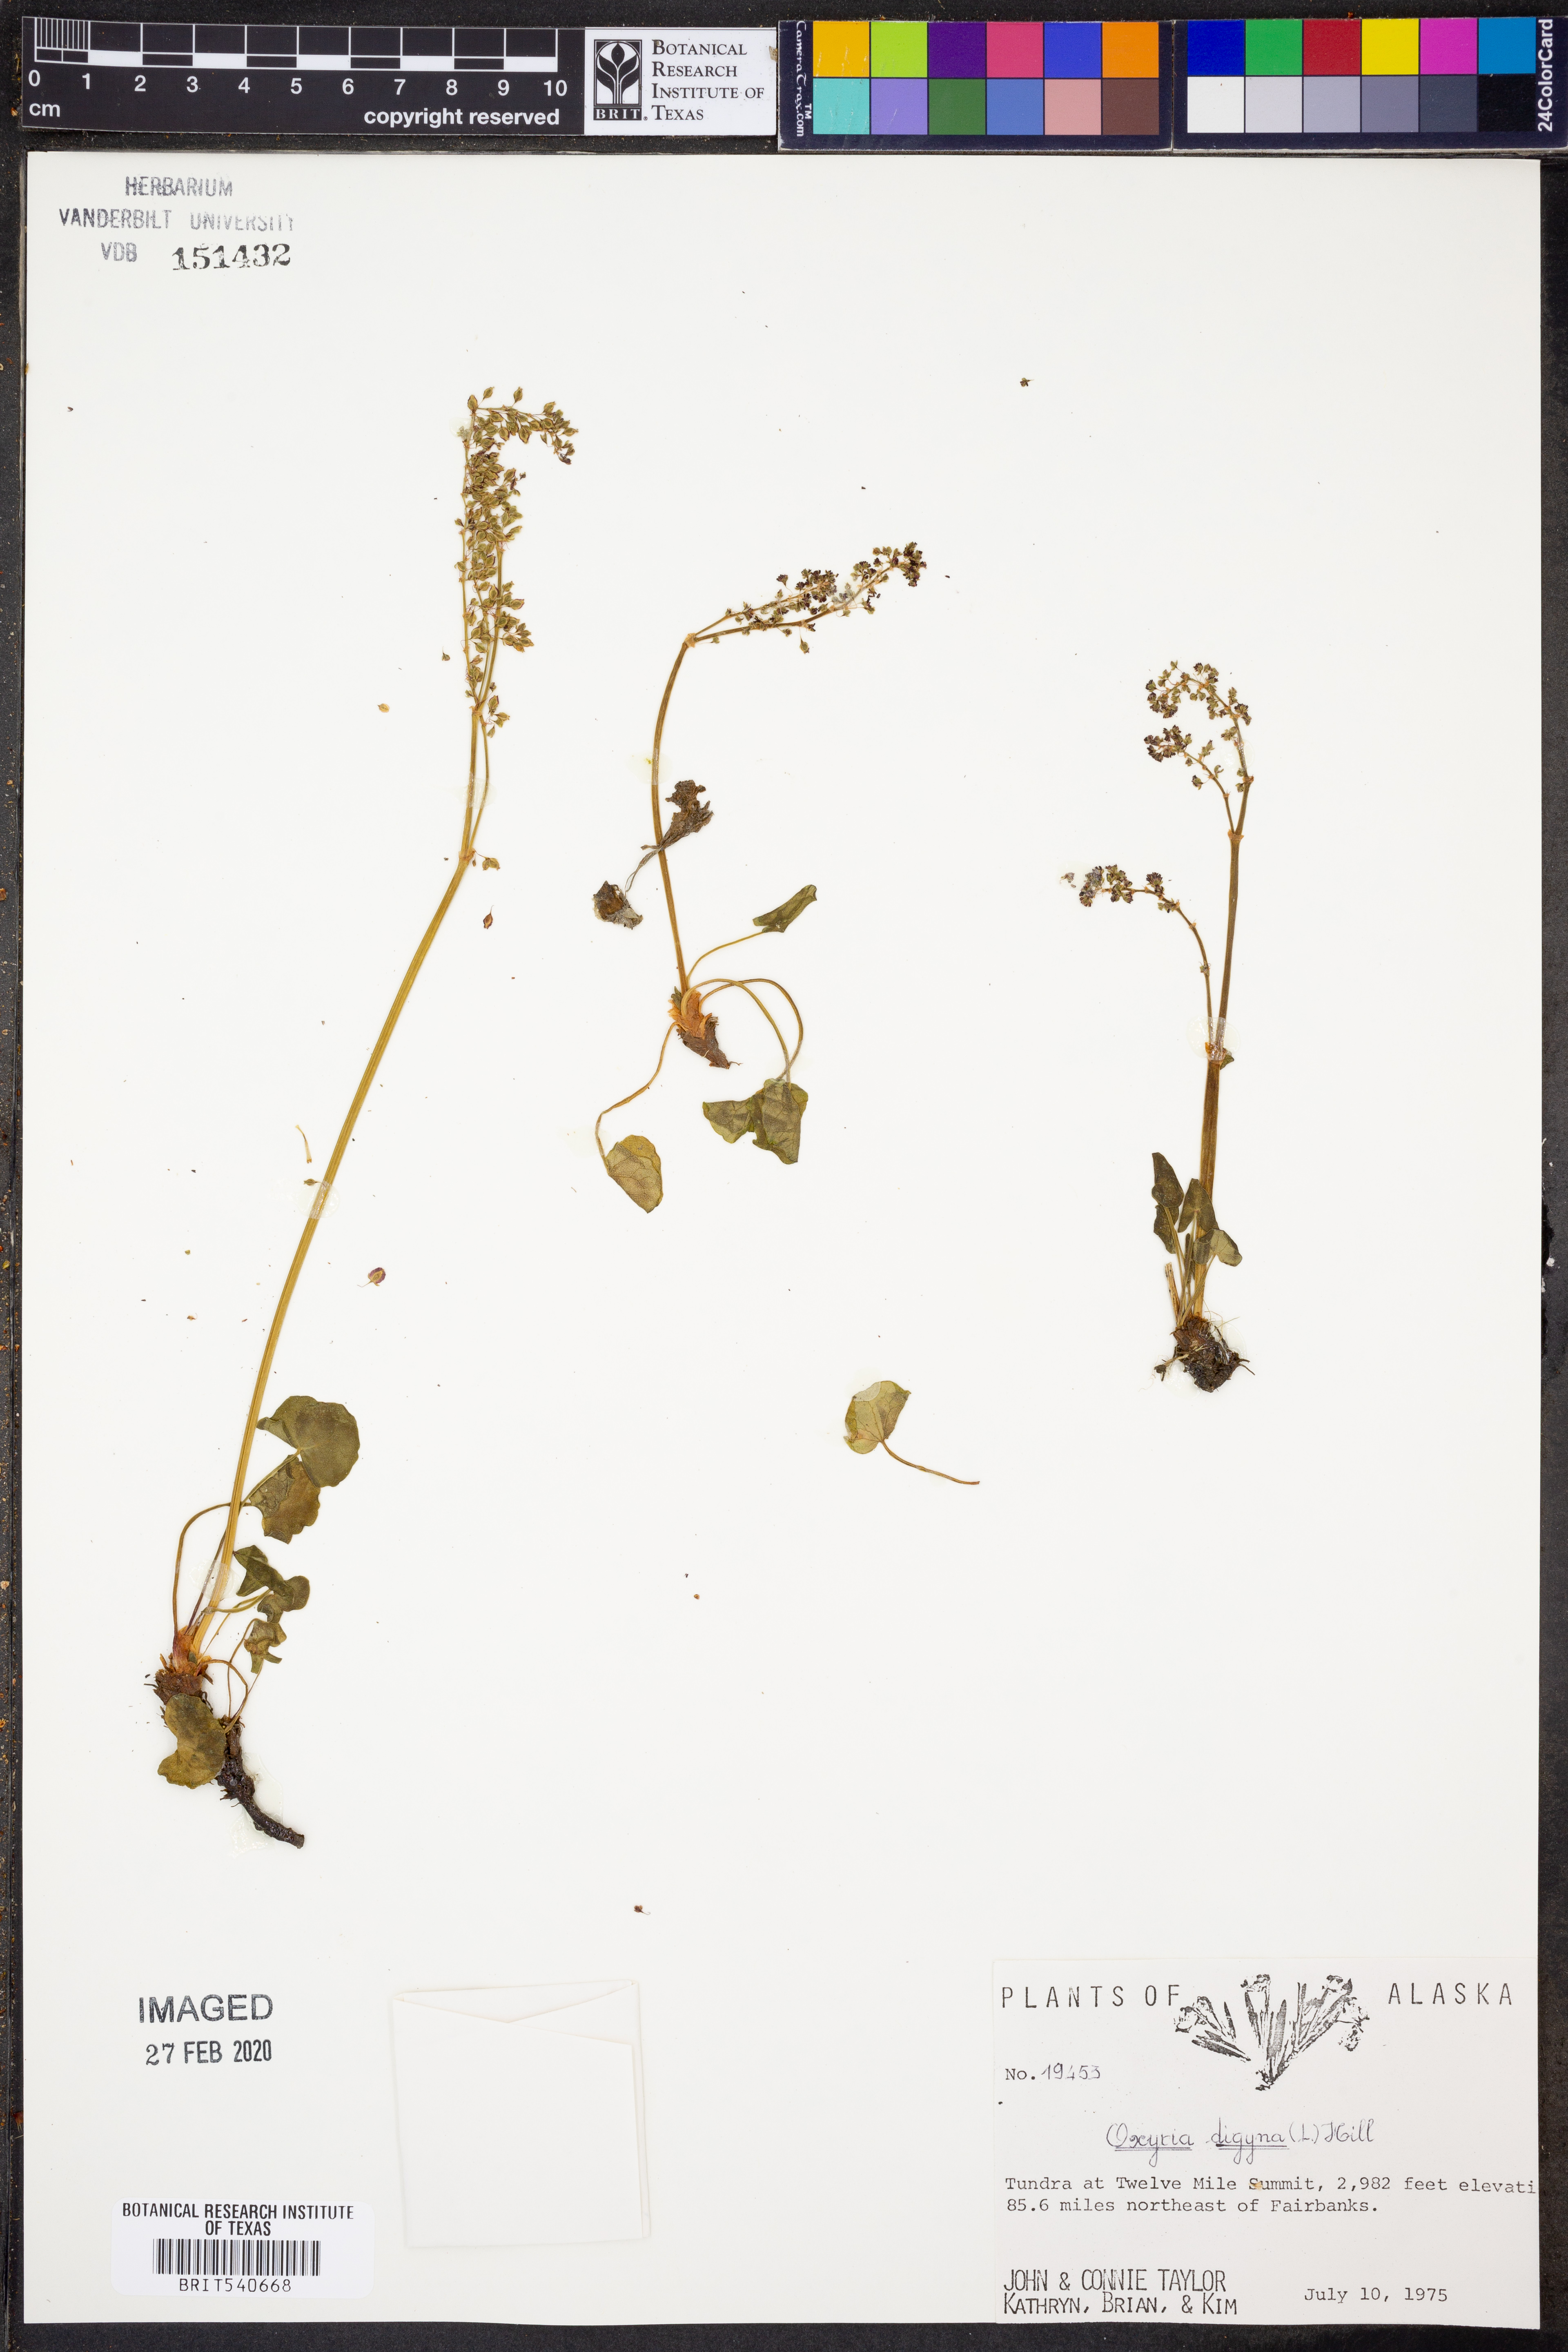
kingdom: Plantae
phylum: Tracheophyta
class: Magnoliopsida
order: Caryophyllales
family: Polygonaceae
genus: Oxyria
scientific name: Oxyria digyna
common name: Alpine mountain-sorrel
